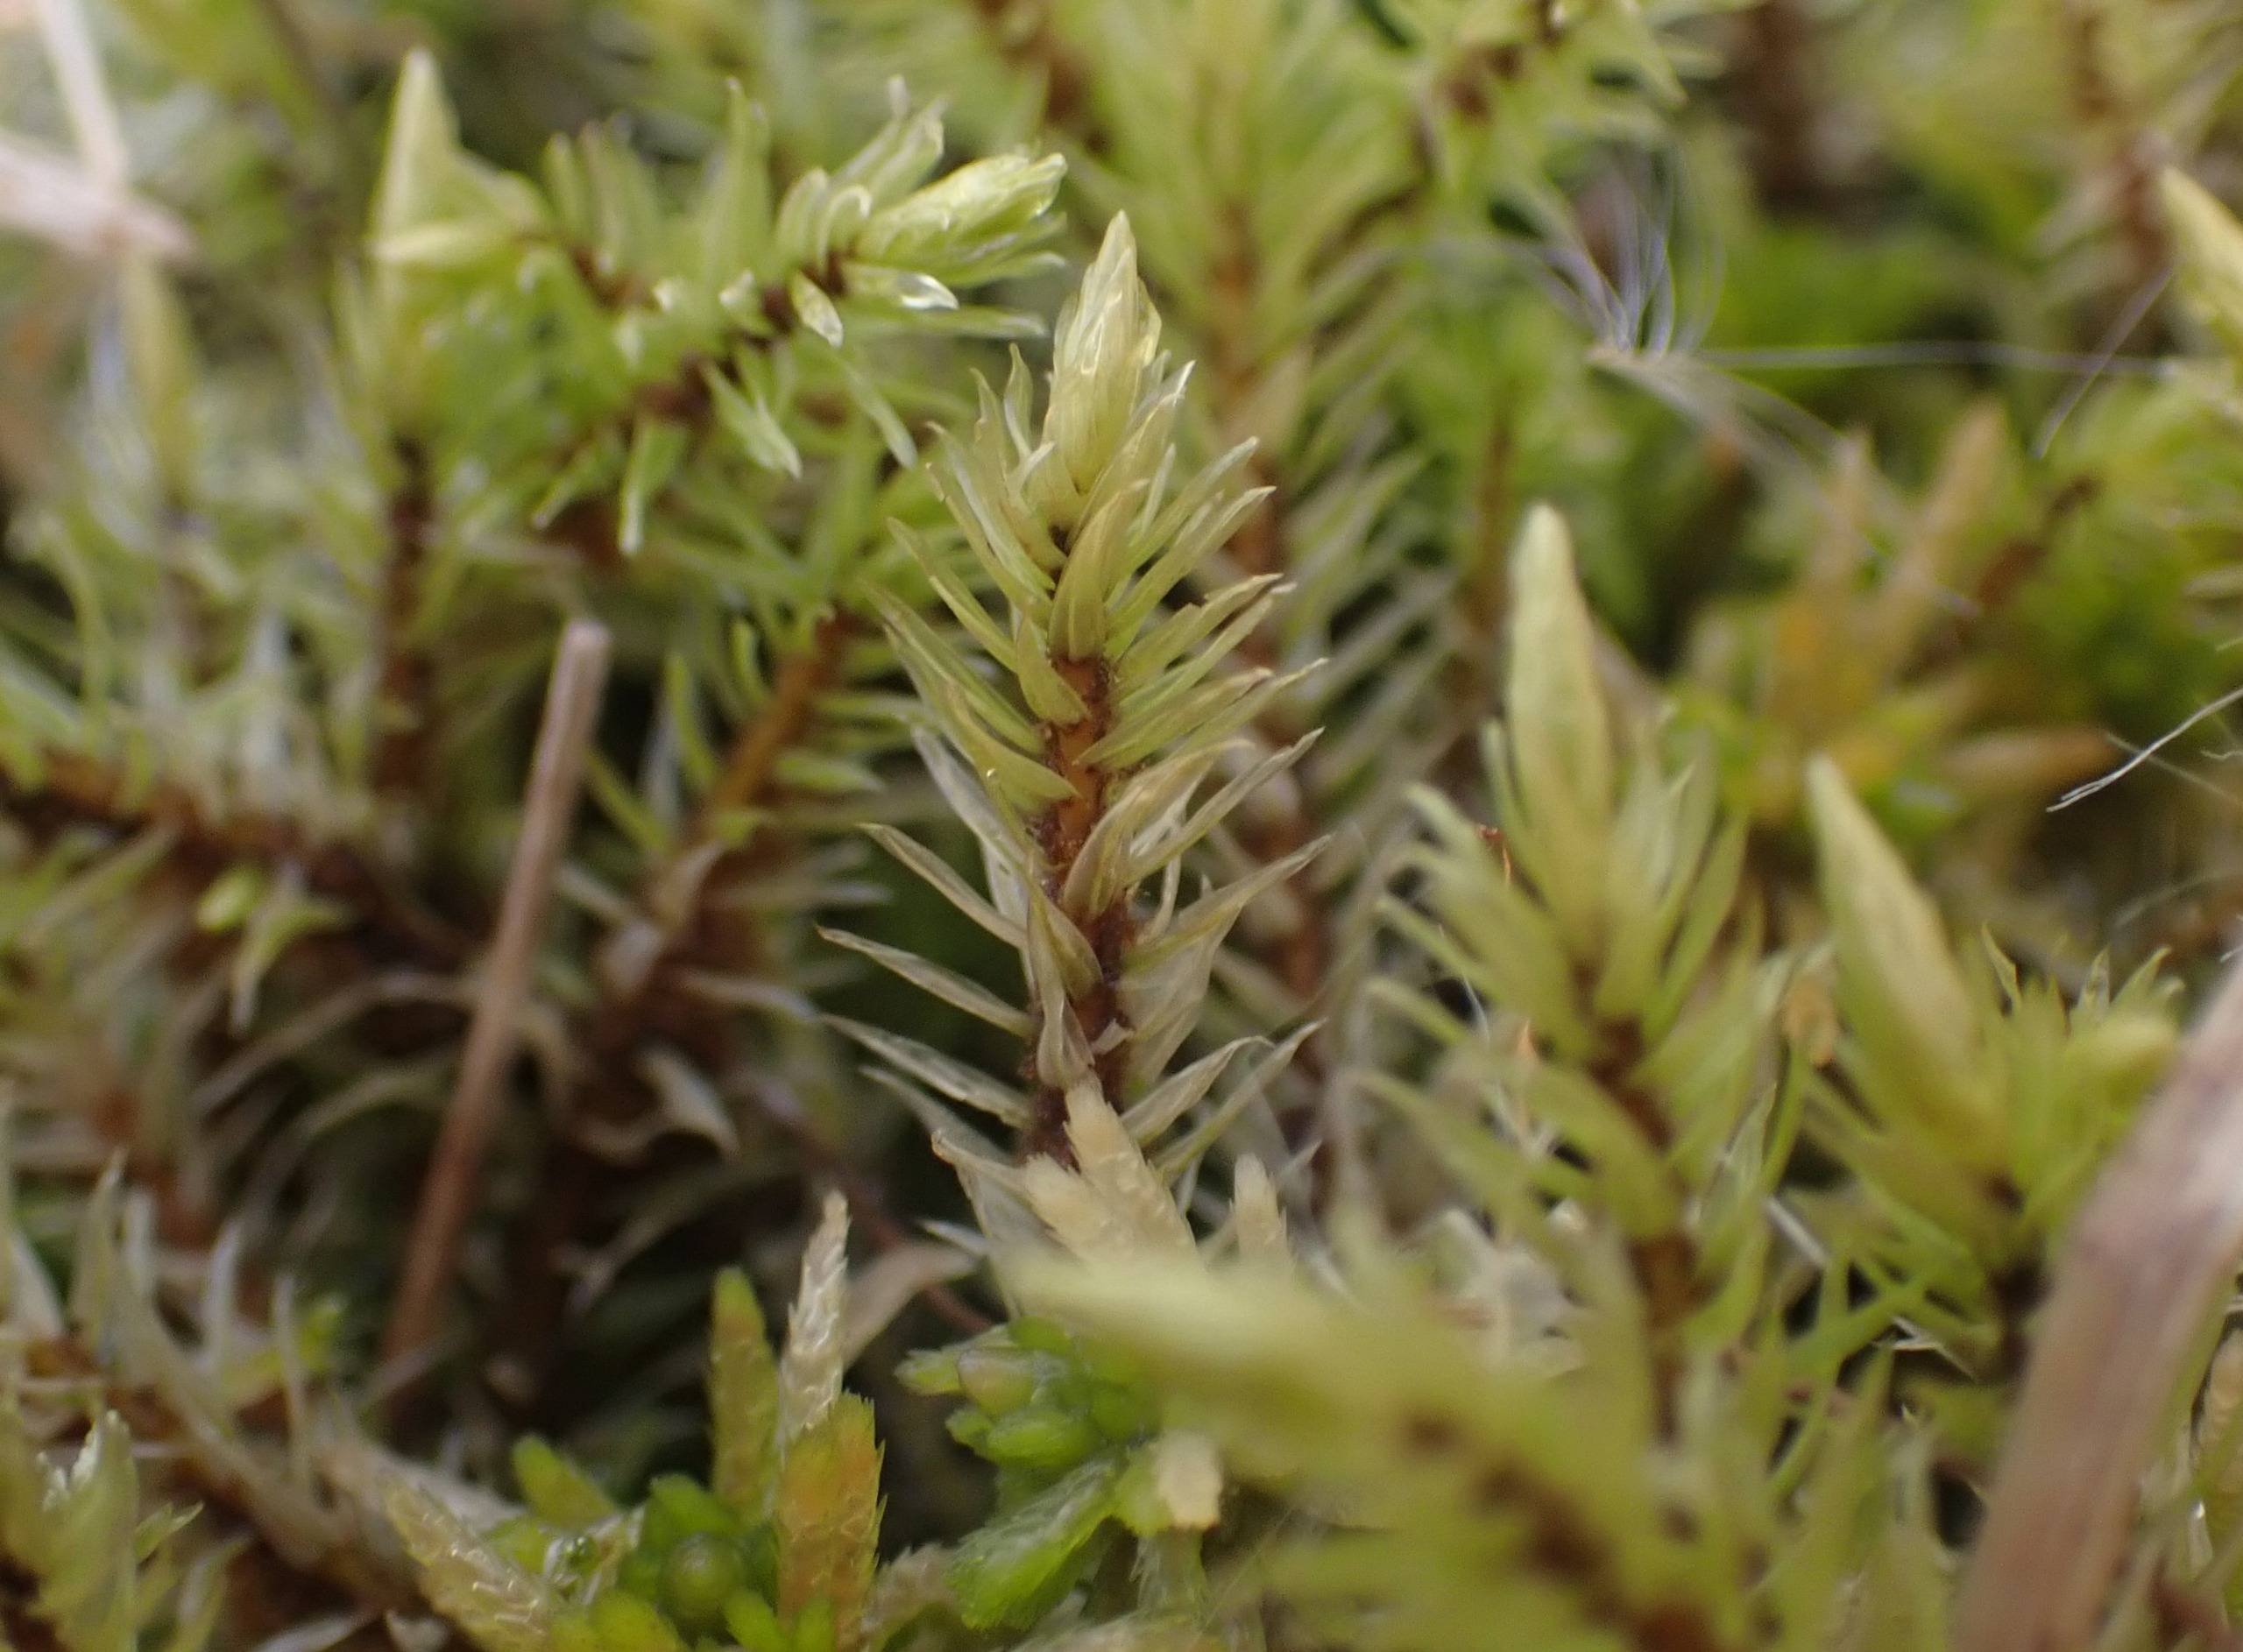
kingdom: Plantae
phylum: Bryophyta
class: Bryopsida
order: Aulacomniales
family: Aulacomniaceae
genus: Aulacomnium
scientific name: Aulacomnium palustre
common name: Almindelig filtmos
